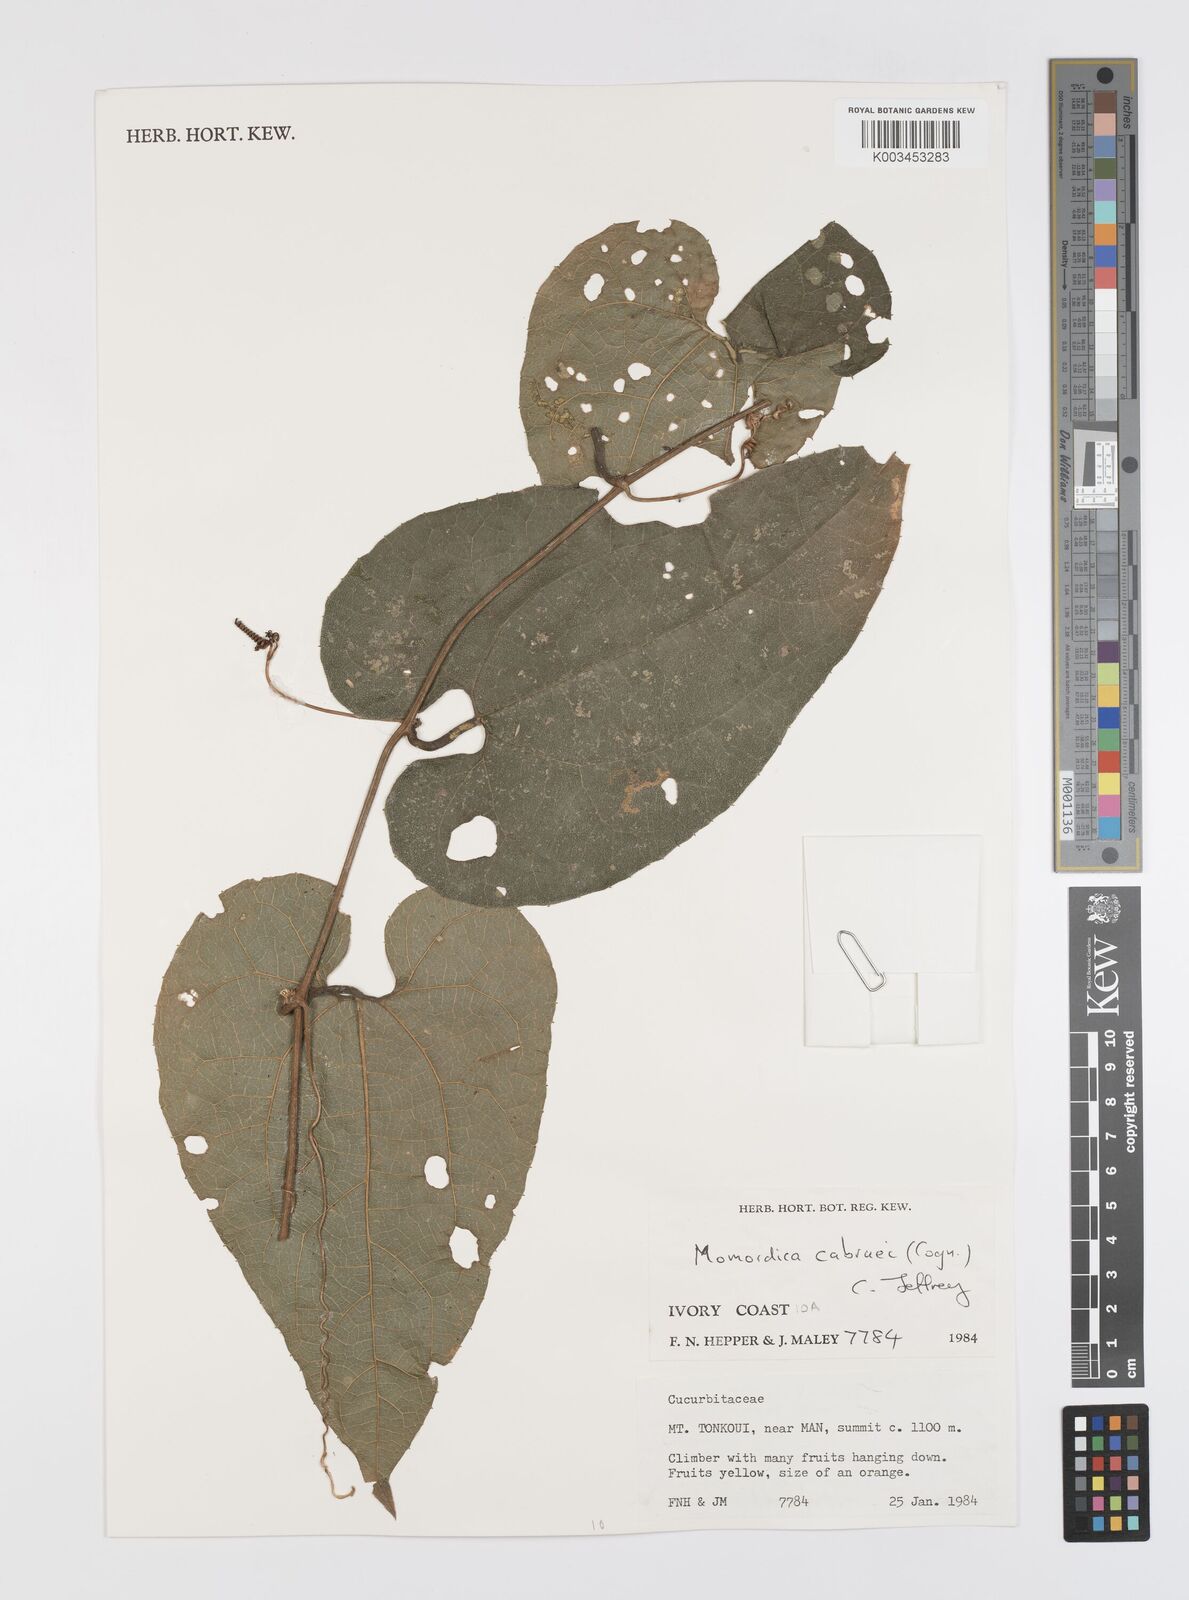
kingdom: Plantae
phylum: Tracheophyta
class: Magnoliopsida
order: Cucurbitales
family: Cucurbitaceae
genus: Momordica
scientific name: Momordica cabrae
